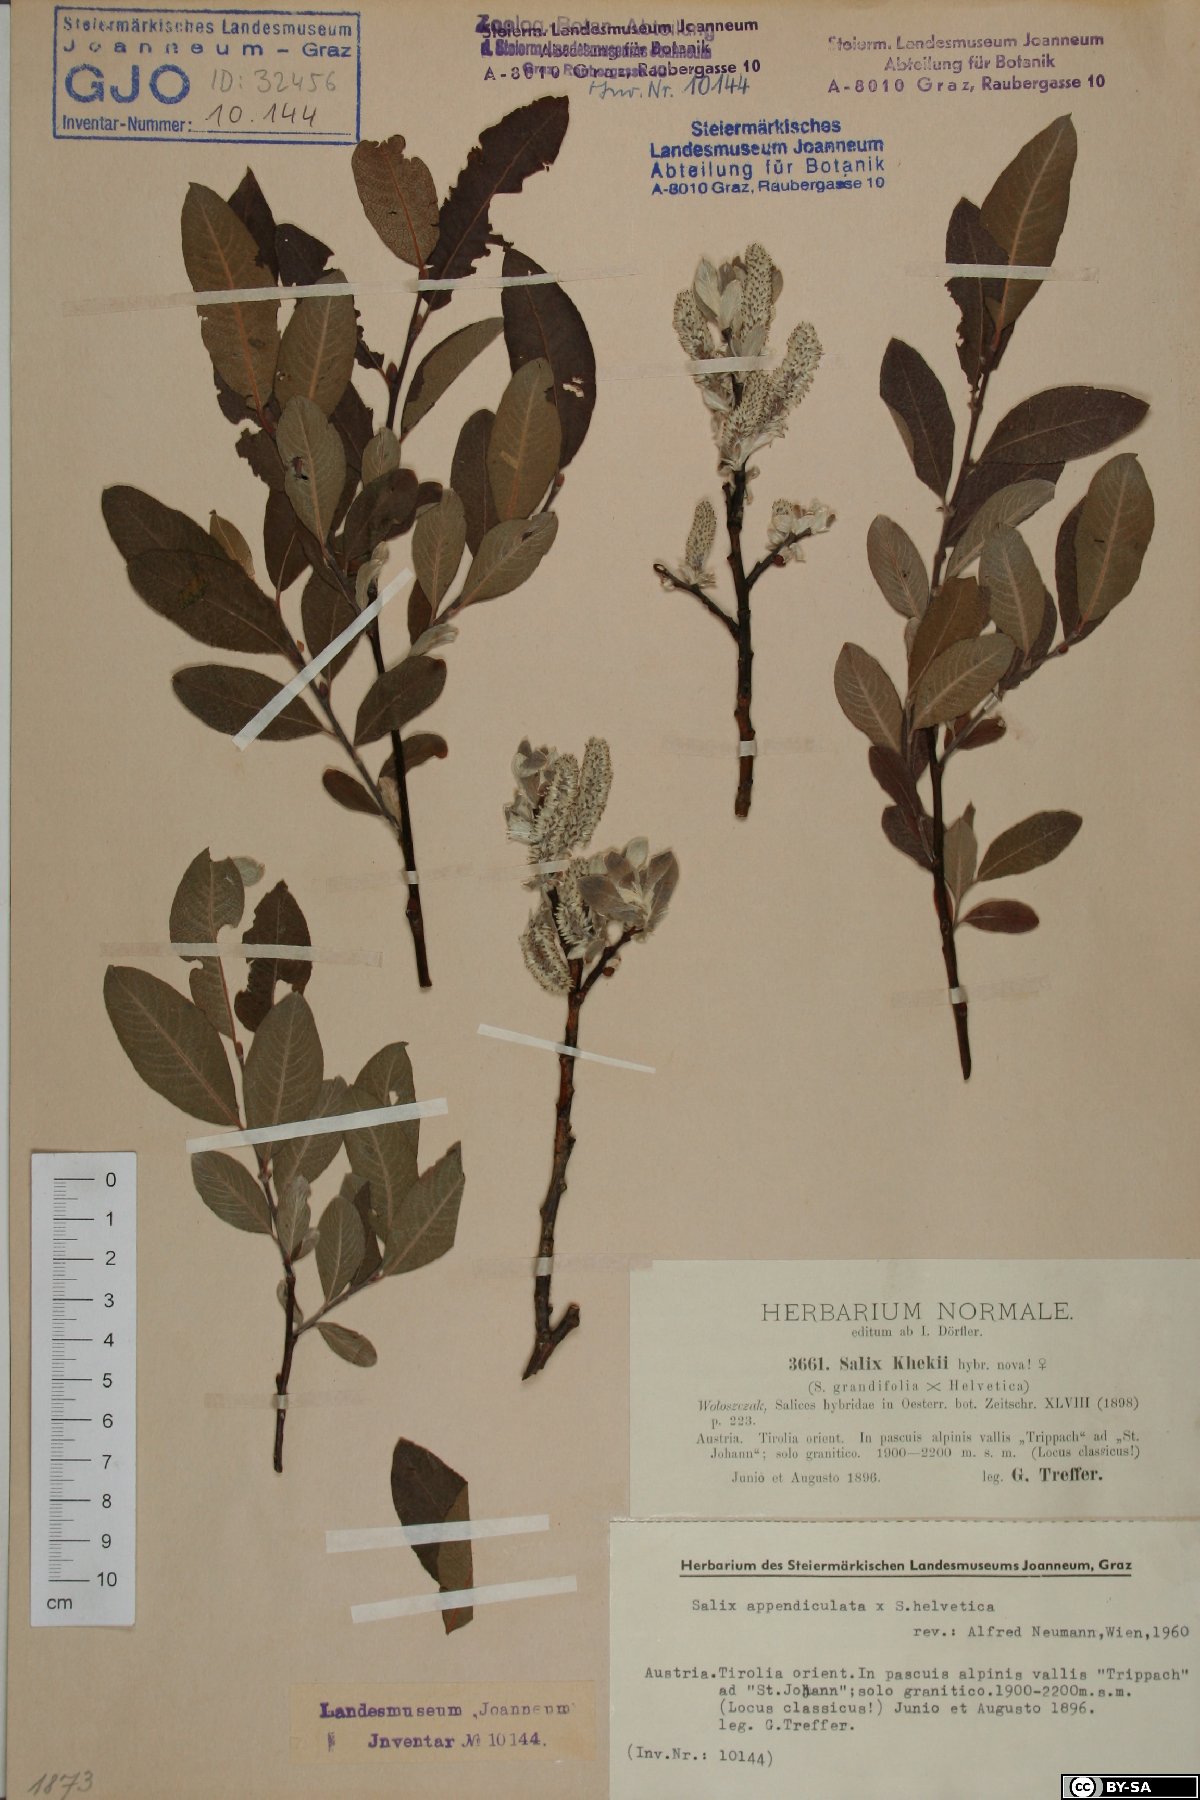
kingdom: Plantae
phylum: Tracheophyta
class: Magnoliopsida
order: Malpighiales
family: Salicaceae
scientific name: Salicaceae
